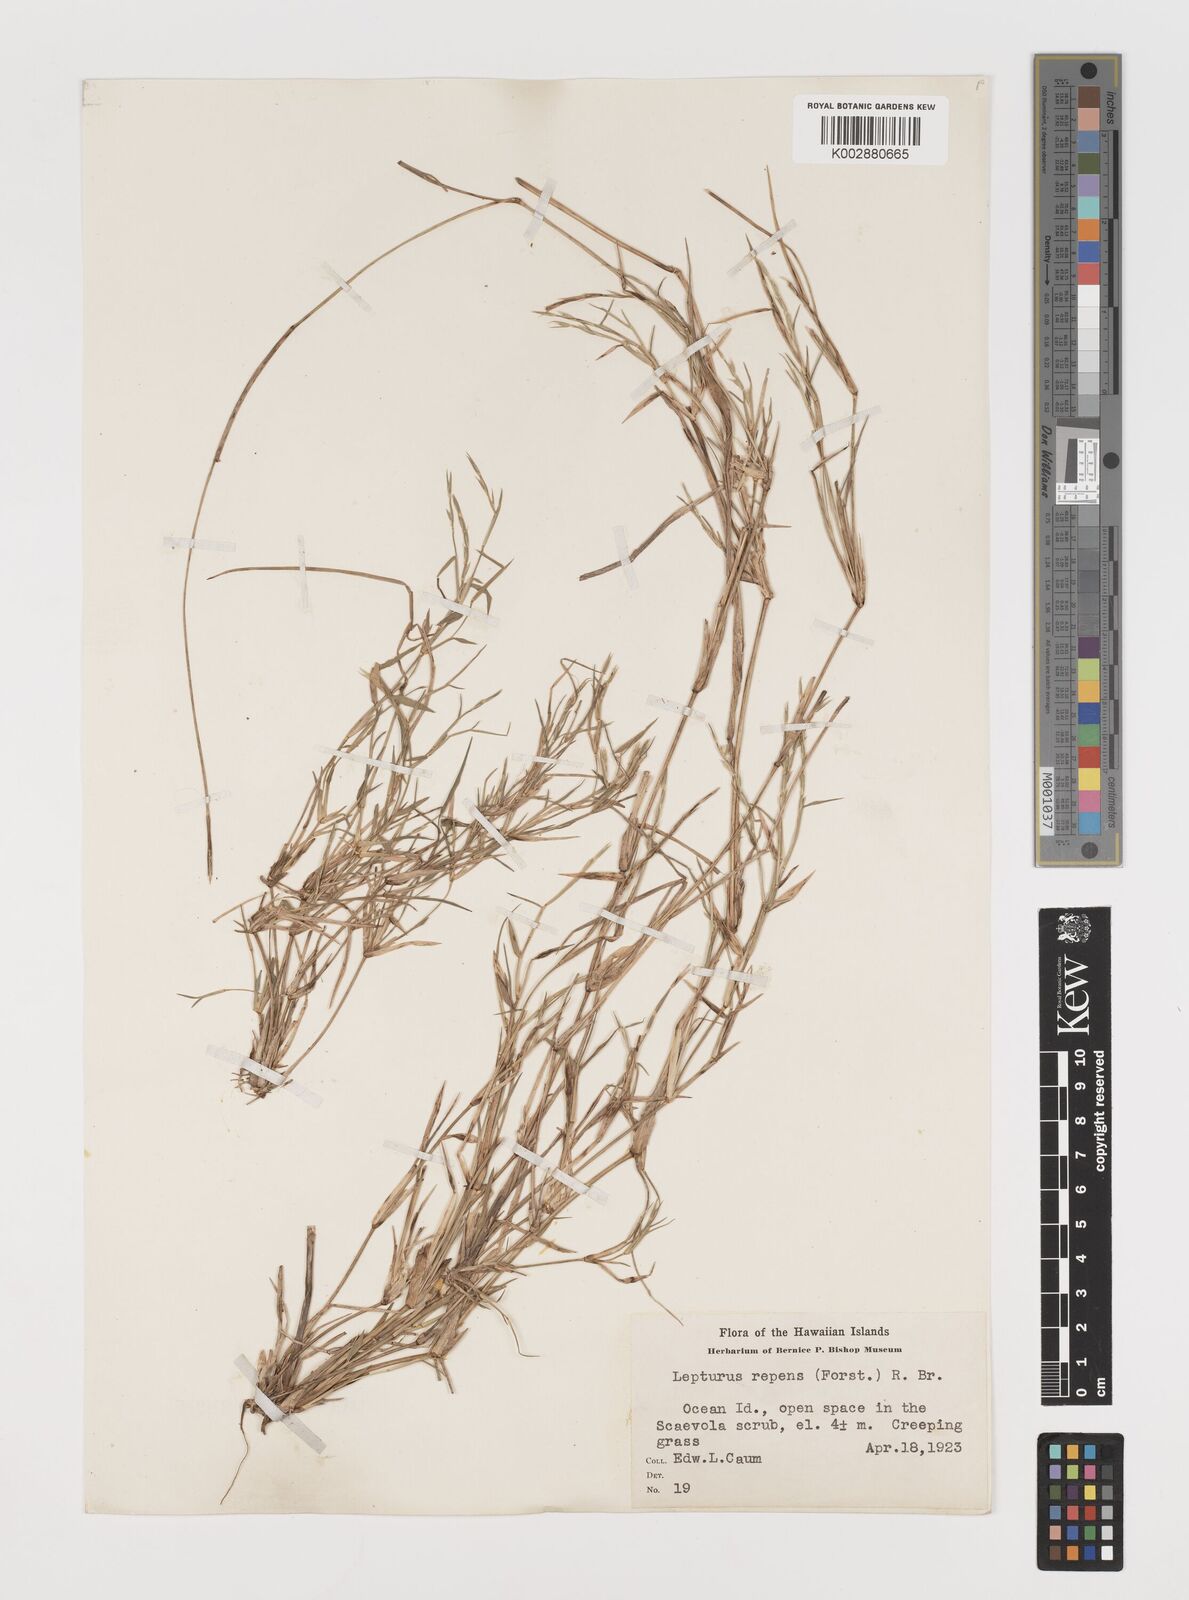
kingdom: Plantae
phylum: Tracheophyta
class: Liliopsida
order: Poales
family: Poaceae
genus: Lepturus
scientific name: Lepturus repens
